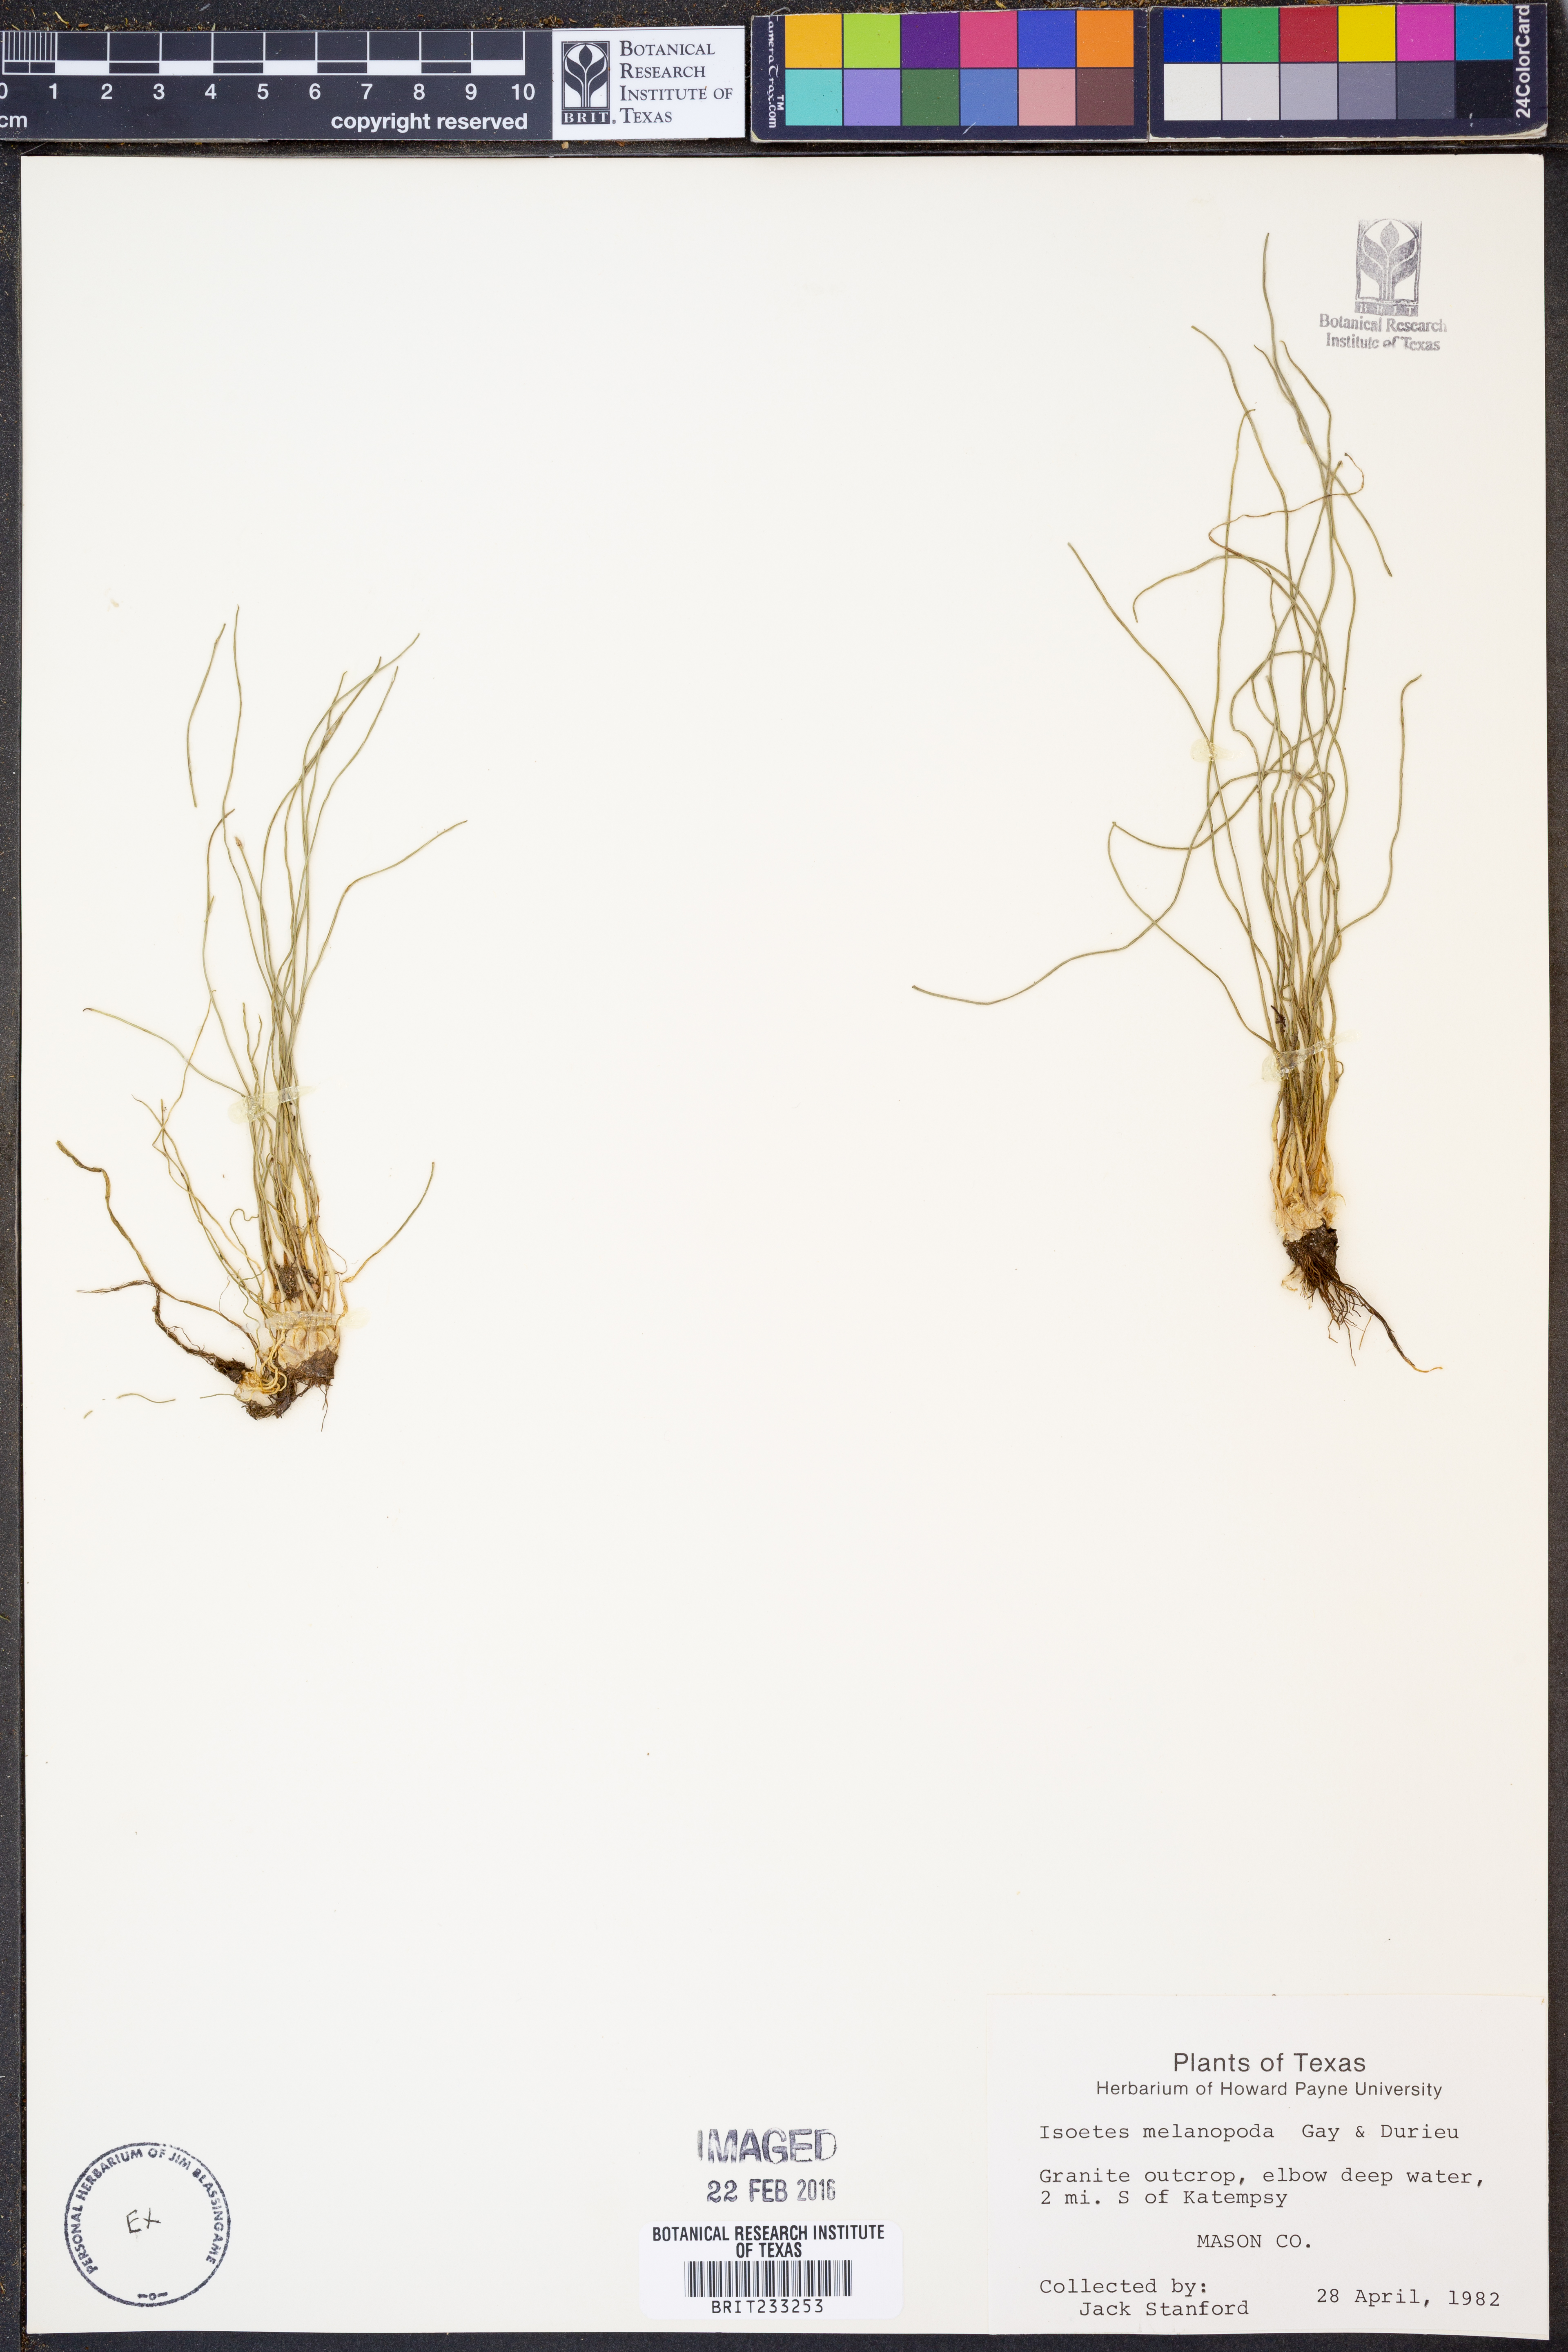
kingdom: Plantae
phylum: Tracheophyta
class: Lycopodiopsida
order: Isoetales
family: Isoetaceae
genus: Isoetes
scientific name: Isoetes melanopoda
